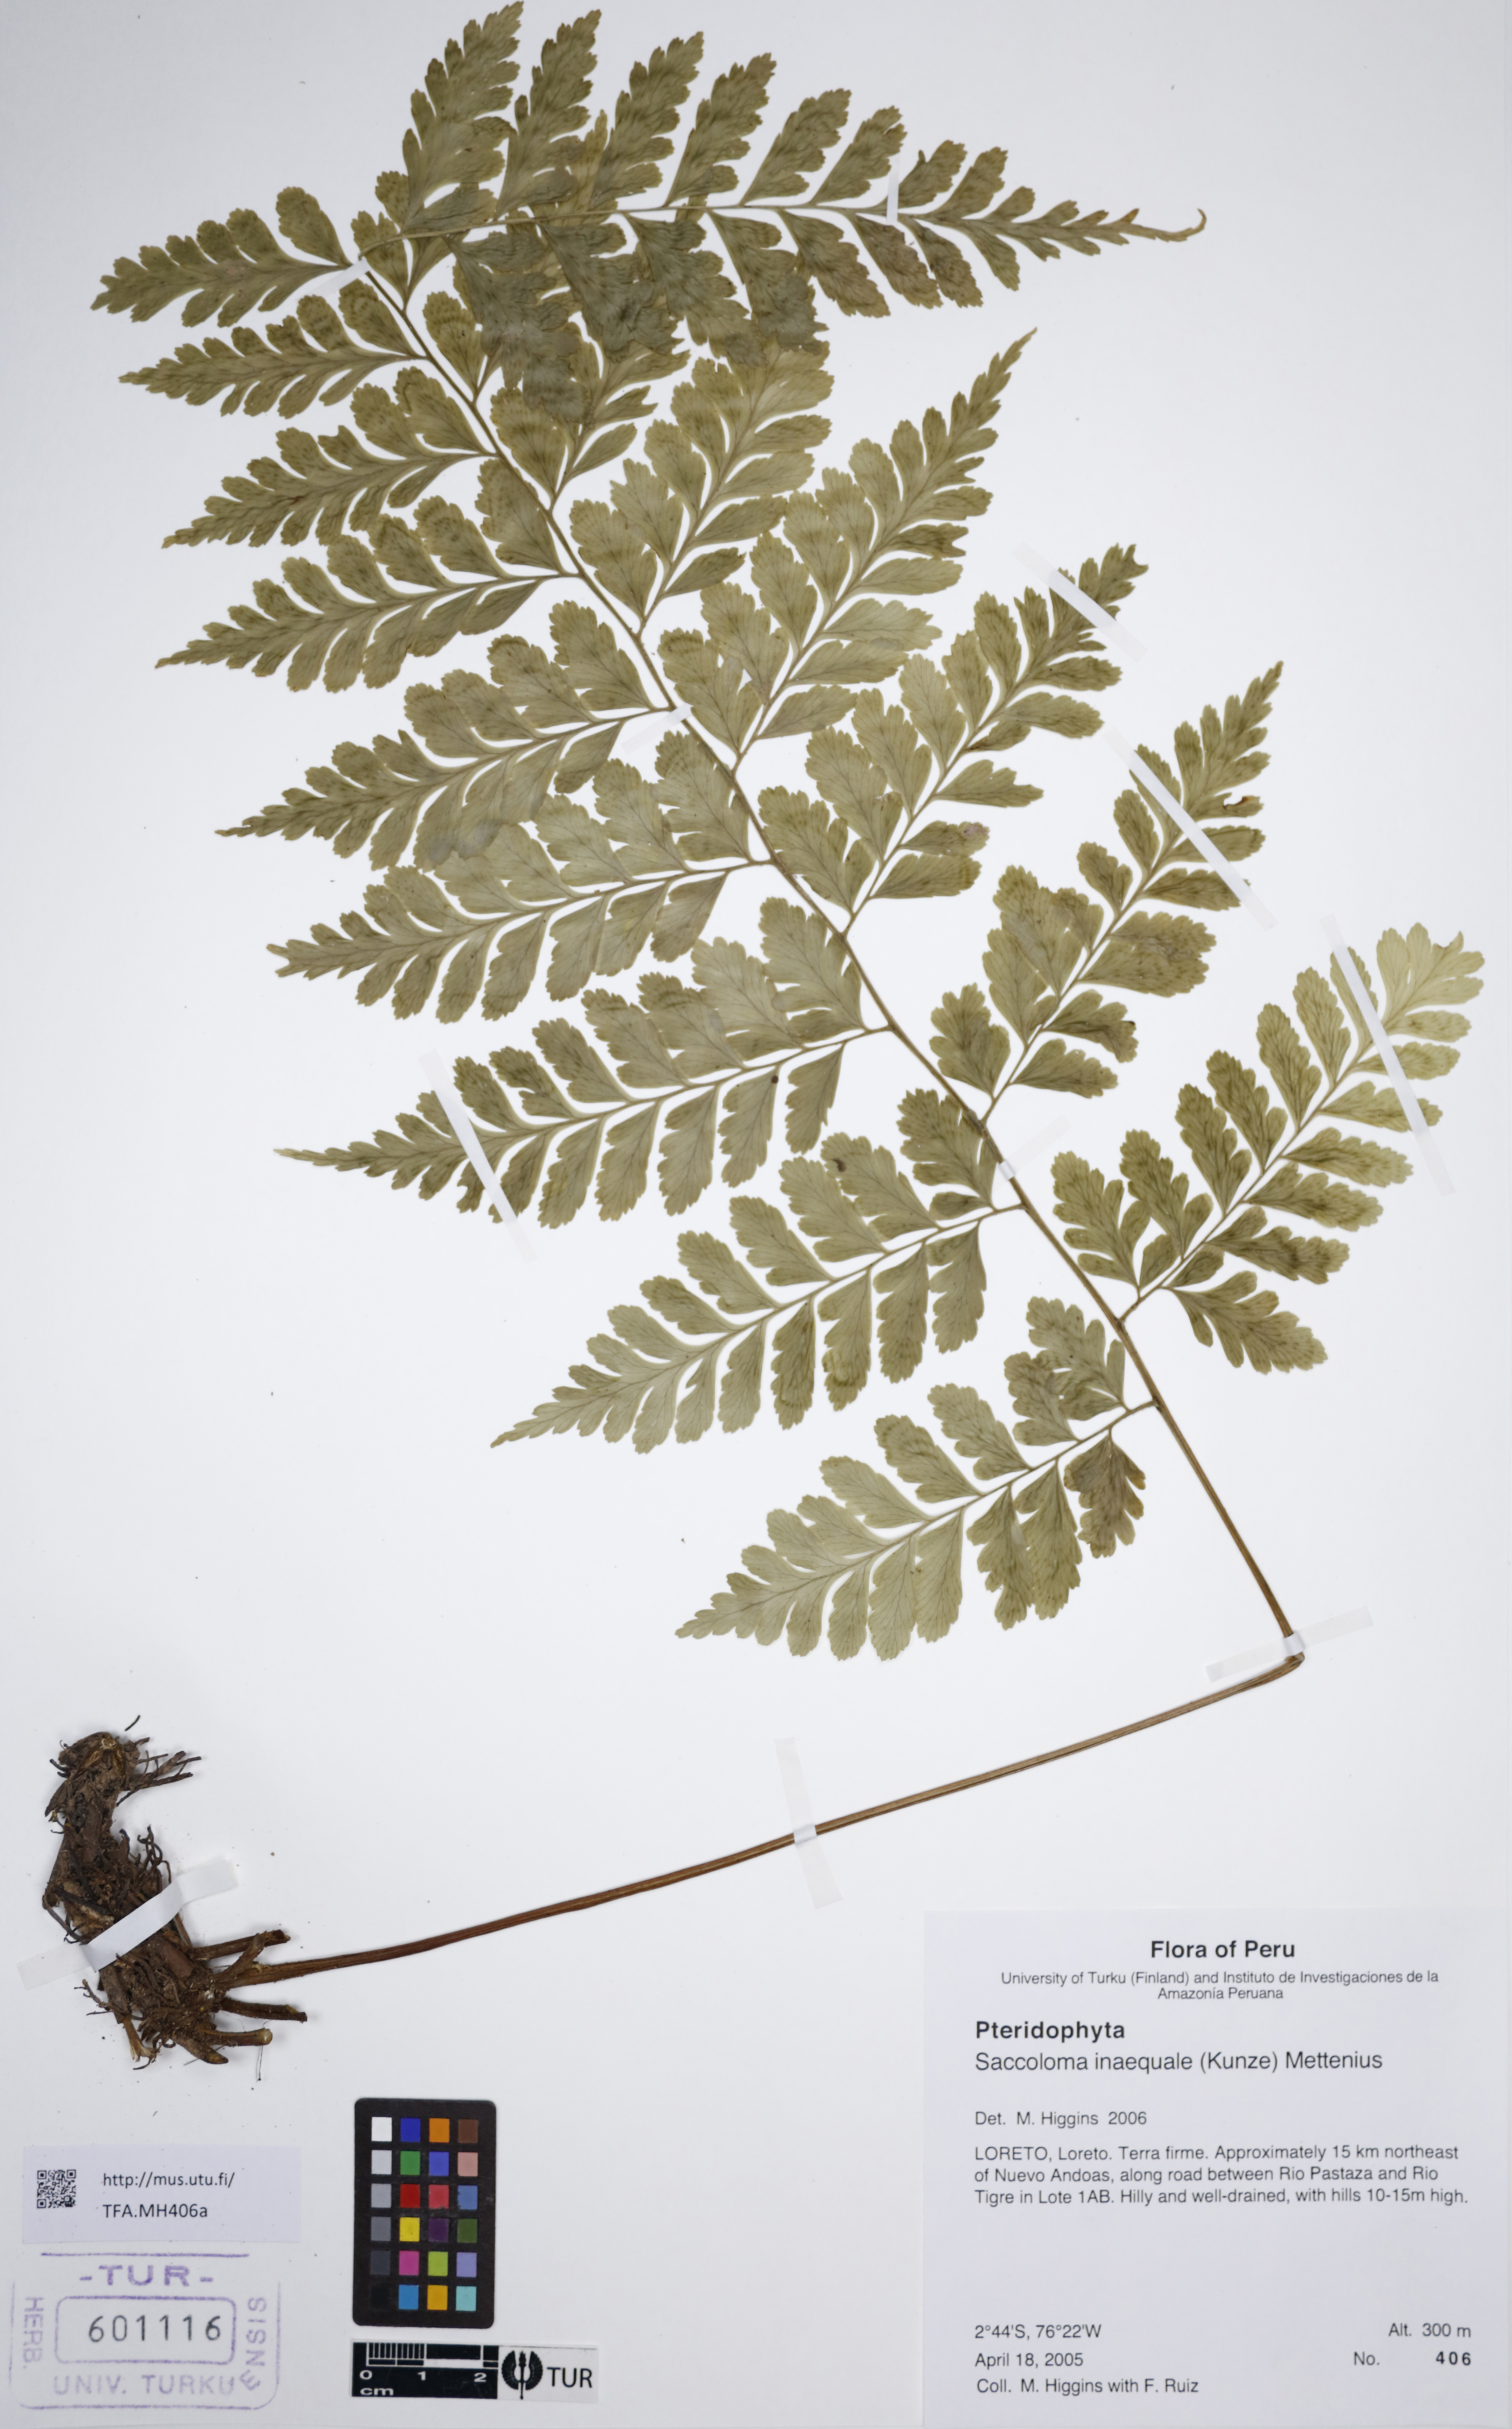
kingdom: Plantae
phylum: Tracheophyta
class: Polypodiopsida
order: Polypodiales
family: Saccolomataceae
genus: Saccoloma
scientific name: Saccoloma inaequale
